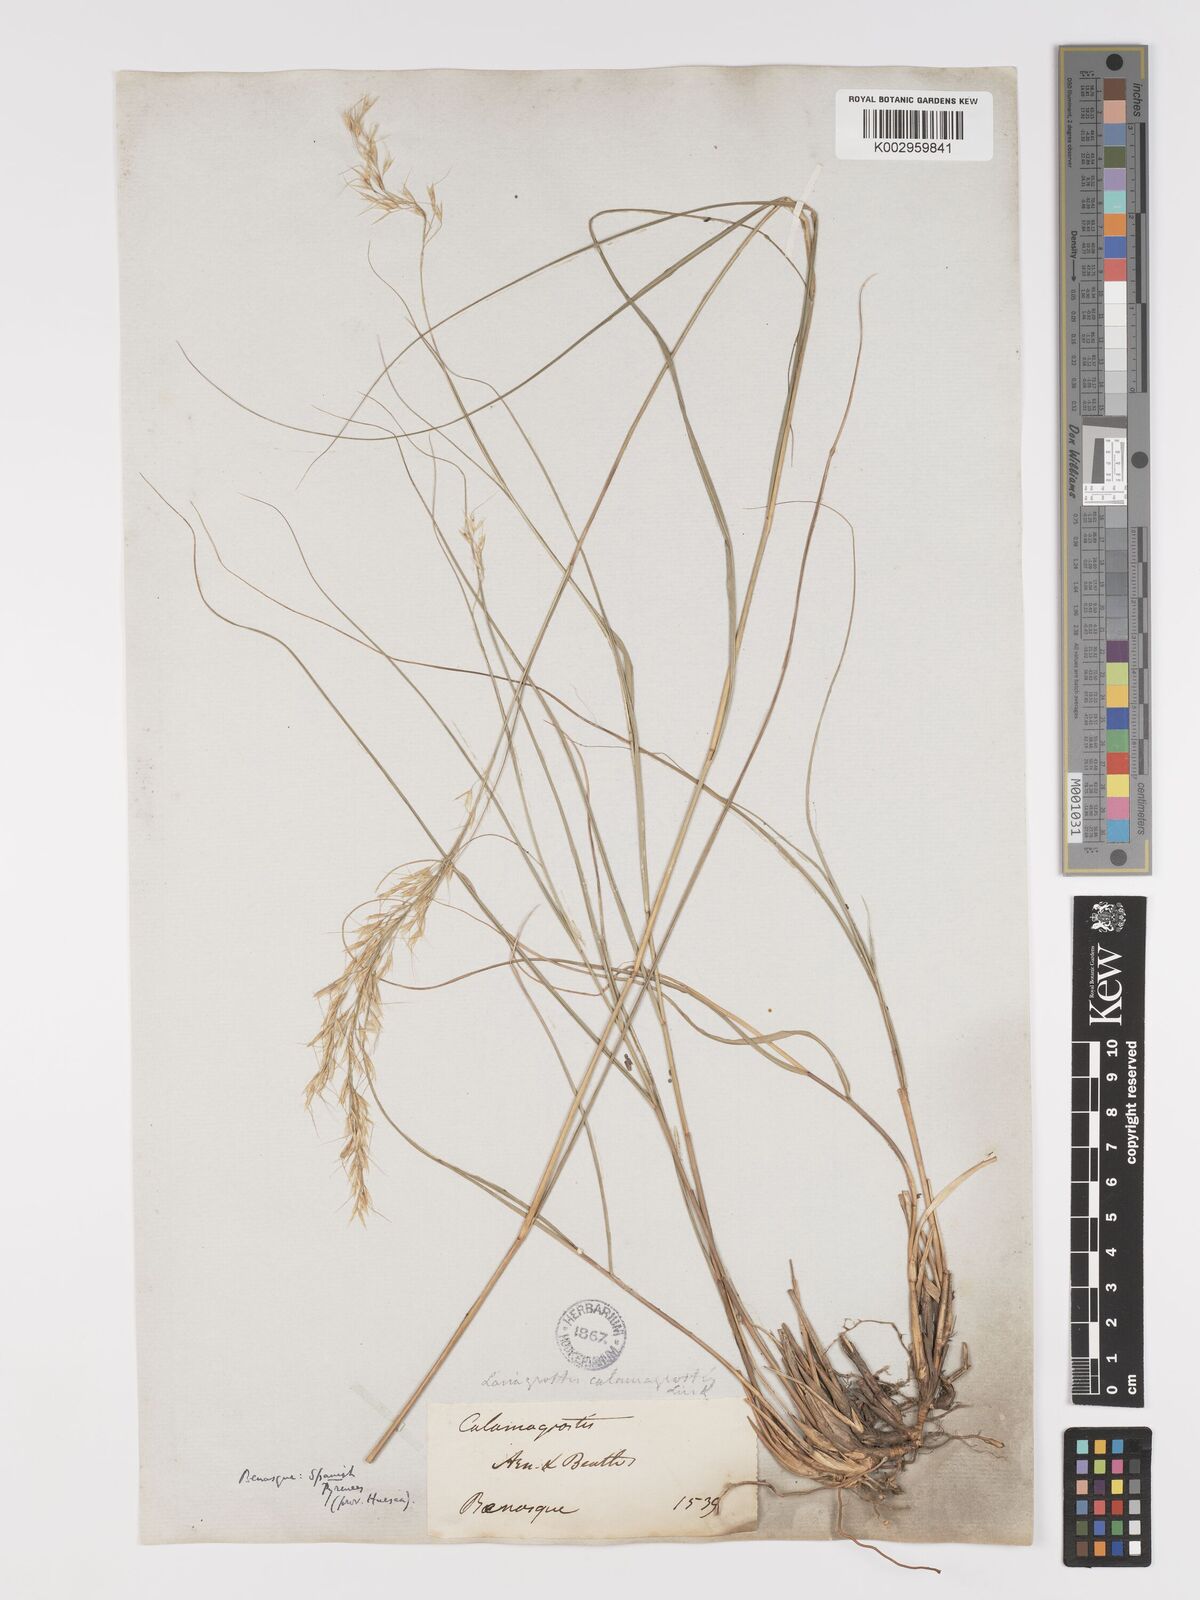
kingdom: Plantae
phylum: Tracheophyta
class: Liliopsida
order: Poales
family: Poaceae
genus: Achnatherum
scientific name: Achnatherum calamagrostis
